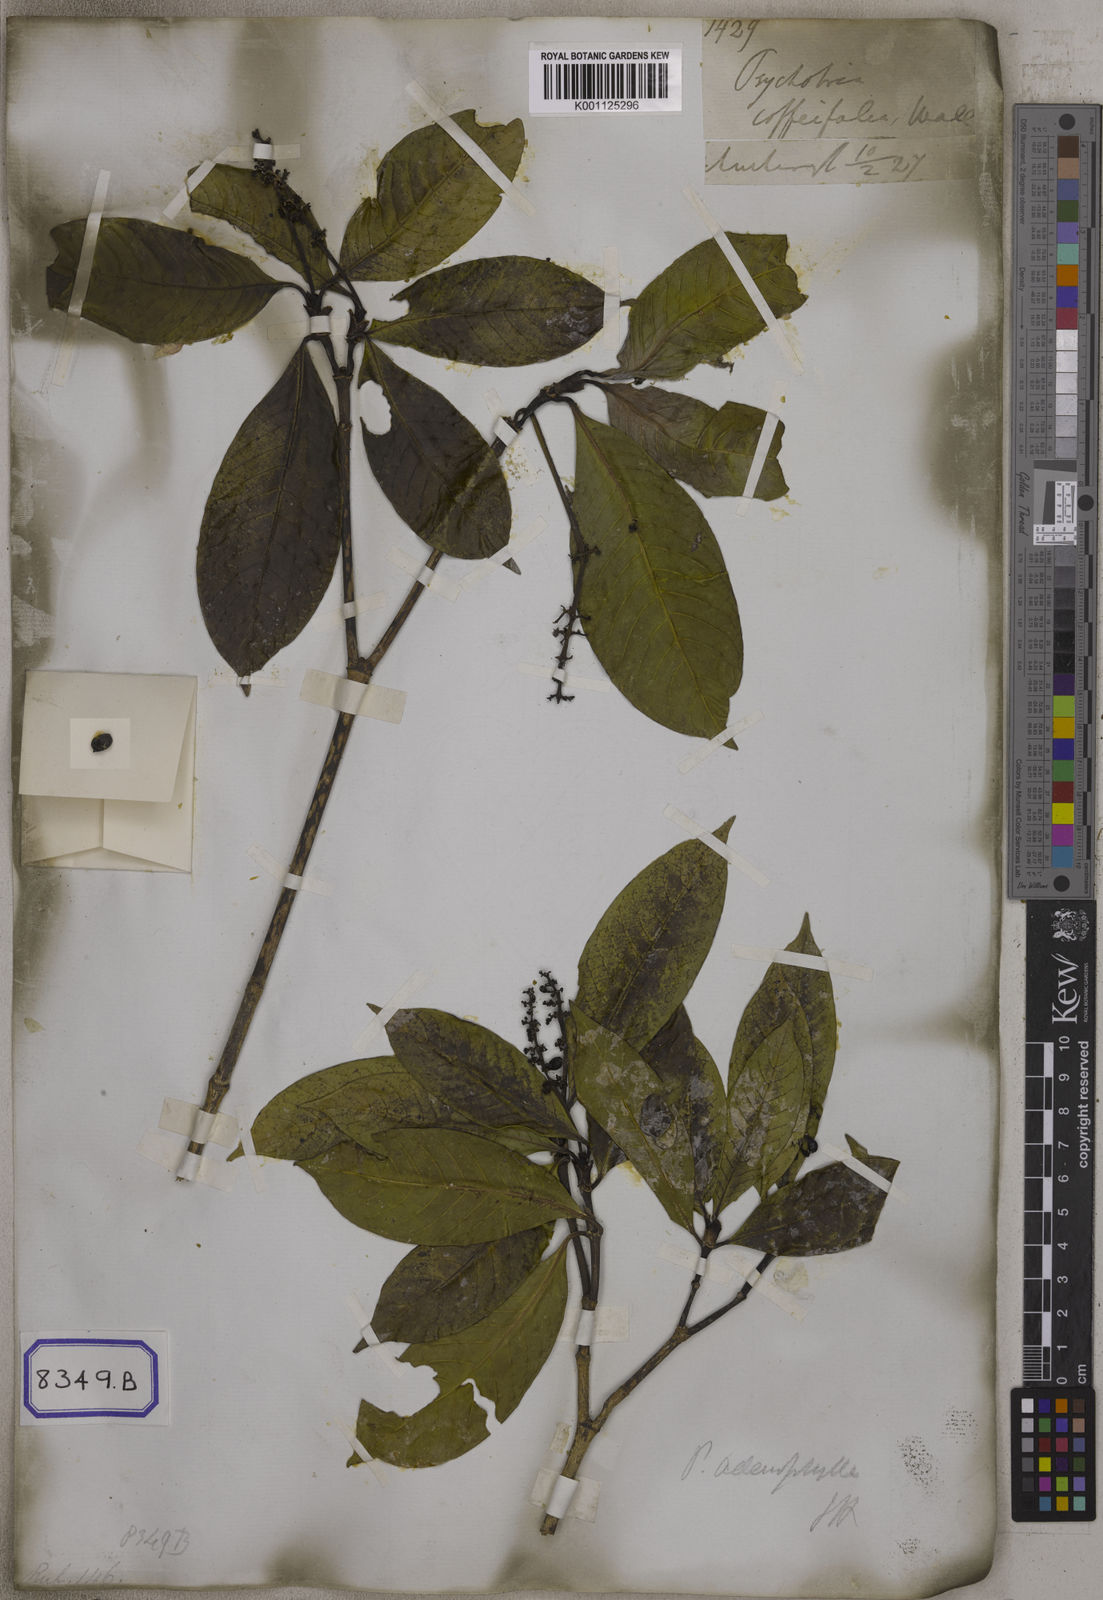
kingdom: Plantae
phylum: Tracheophyta
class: Magnoliopsida
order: Gentianales
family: Rubiaceae
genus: Psychotria
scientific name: Psychotria adenophylla
